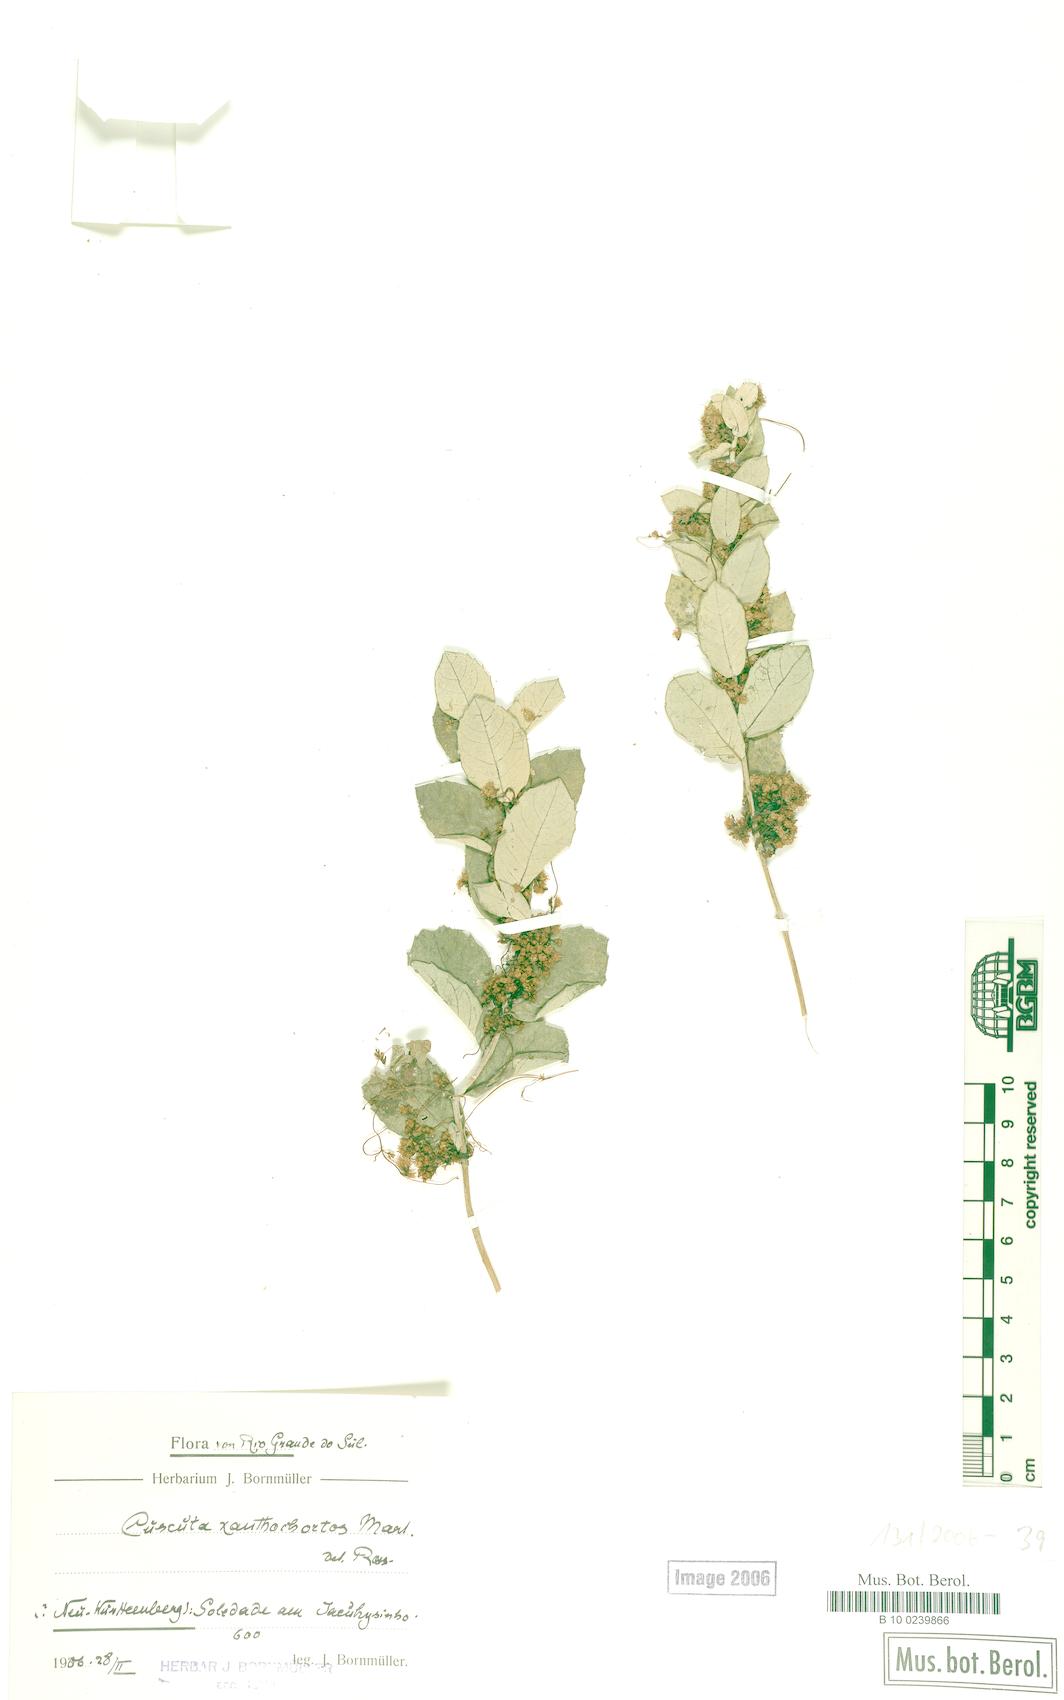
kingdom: Plantae
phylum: Tracheophyta
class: Magnoliopsida
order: Solanales
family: Convolvulaceae
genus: Cuscuta
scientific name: Cuscuta xanthochortos
